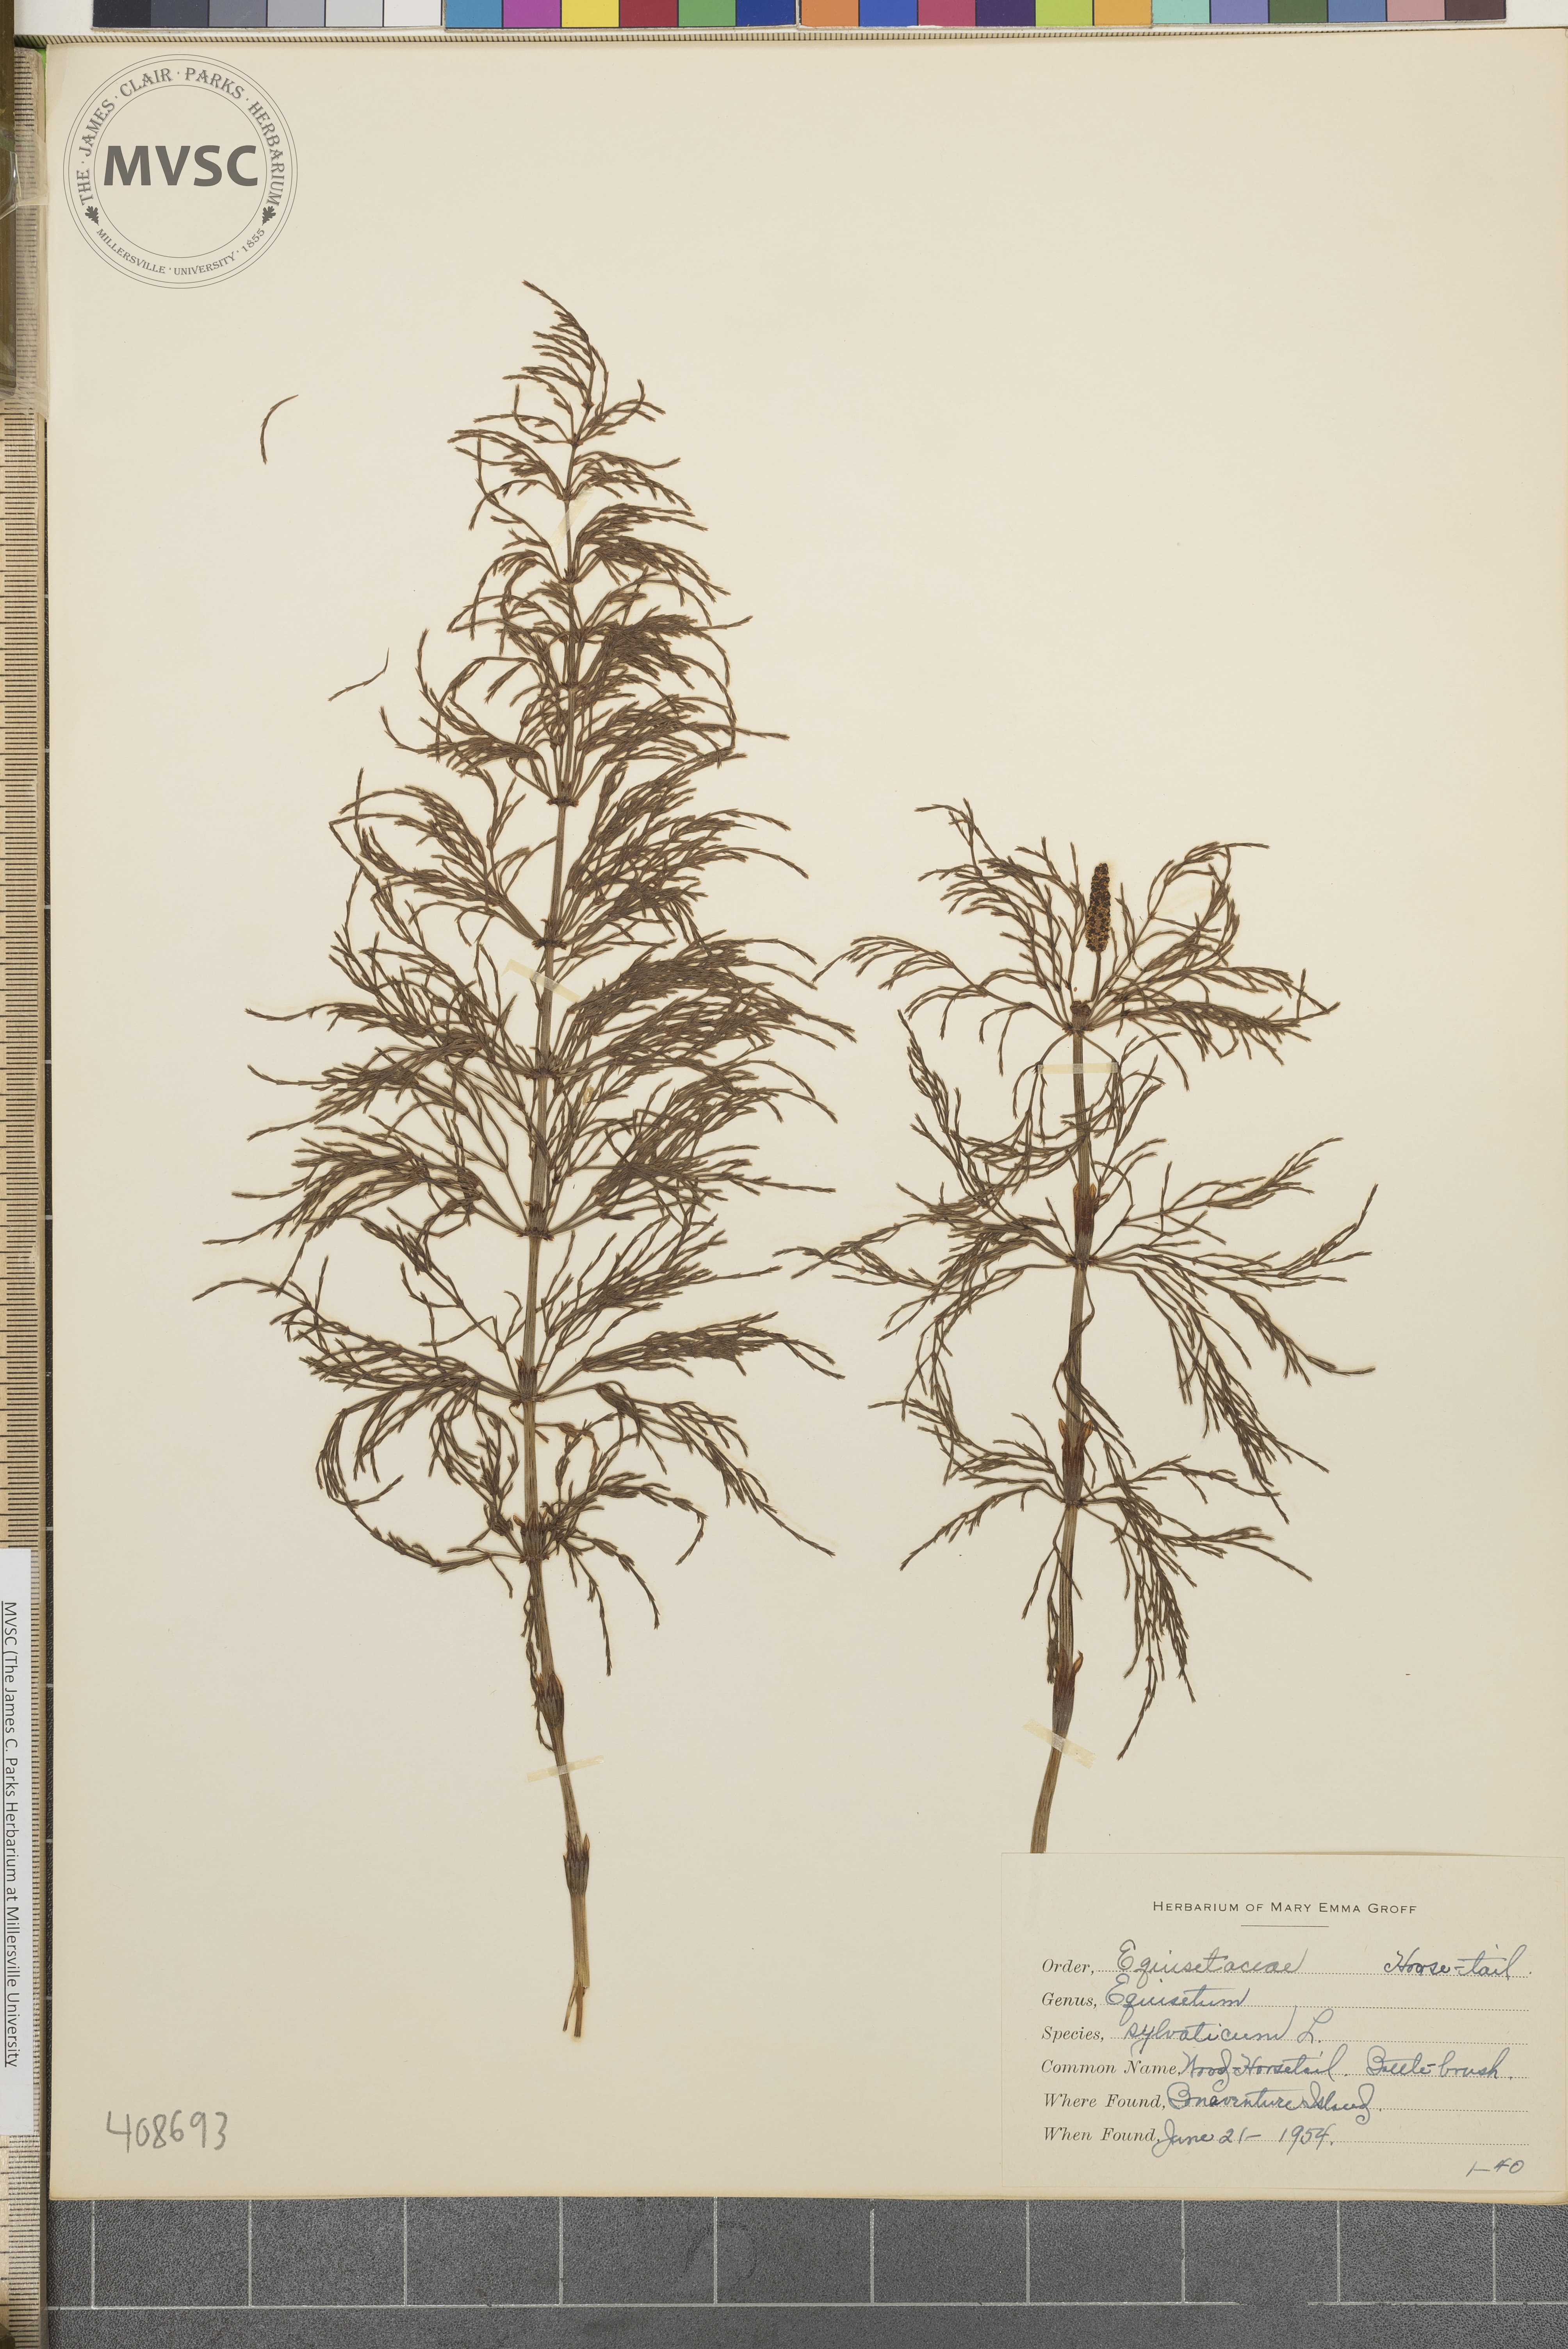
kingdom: Plantae
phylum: Tracheophyta
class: Polypodiopsida
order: Equisetales
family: Equisetaceae
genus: Equisetum
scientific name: Equisetum sylvaticum
